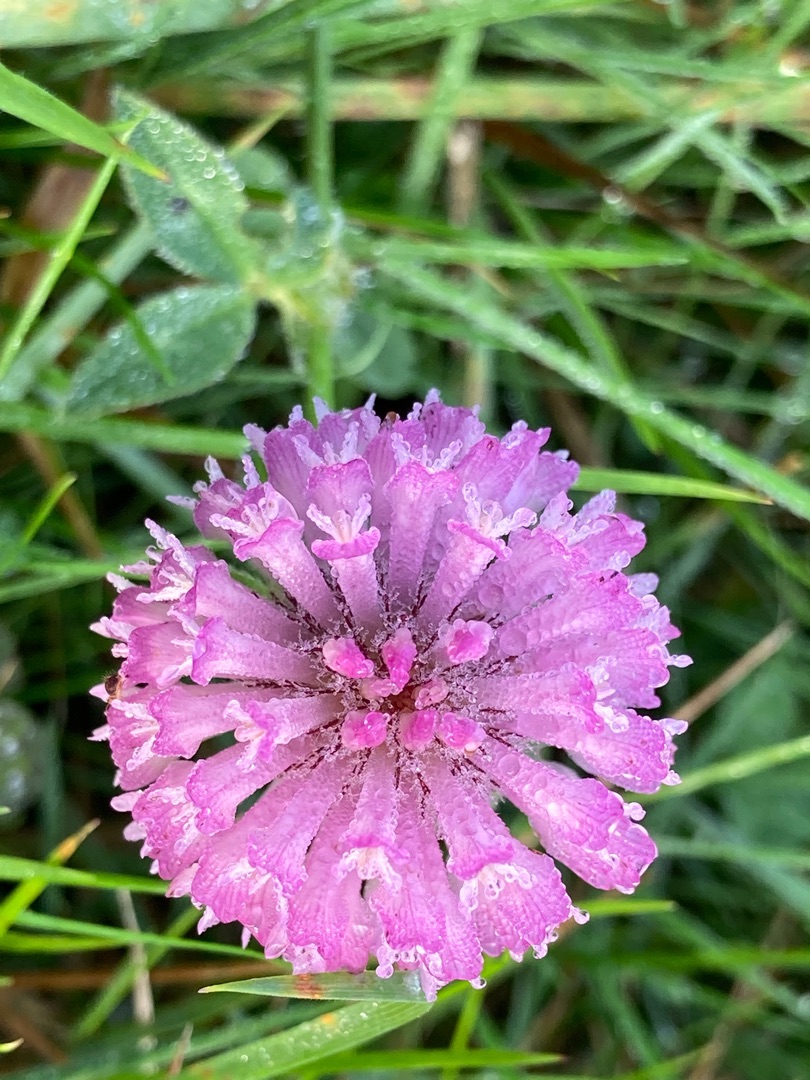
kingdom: Plantae
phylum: Tracheophyta
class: Magnoliopsida
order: Fabales
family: Fabaceae
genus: Trifolium
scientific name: Trifolium pratense
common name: Rød-kløver
